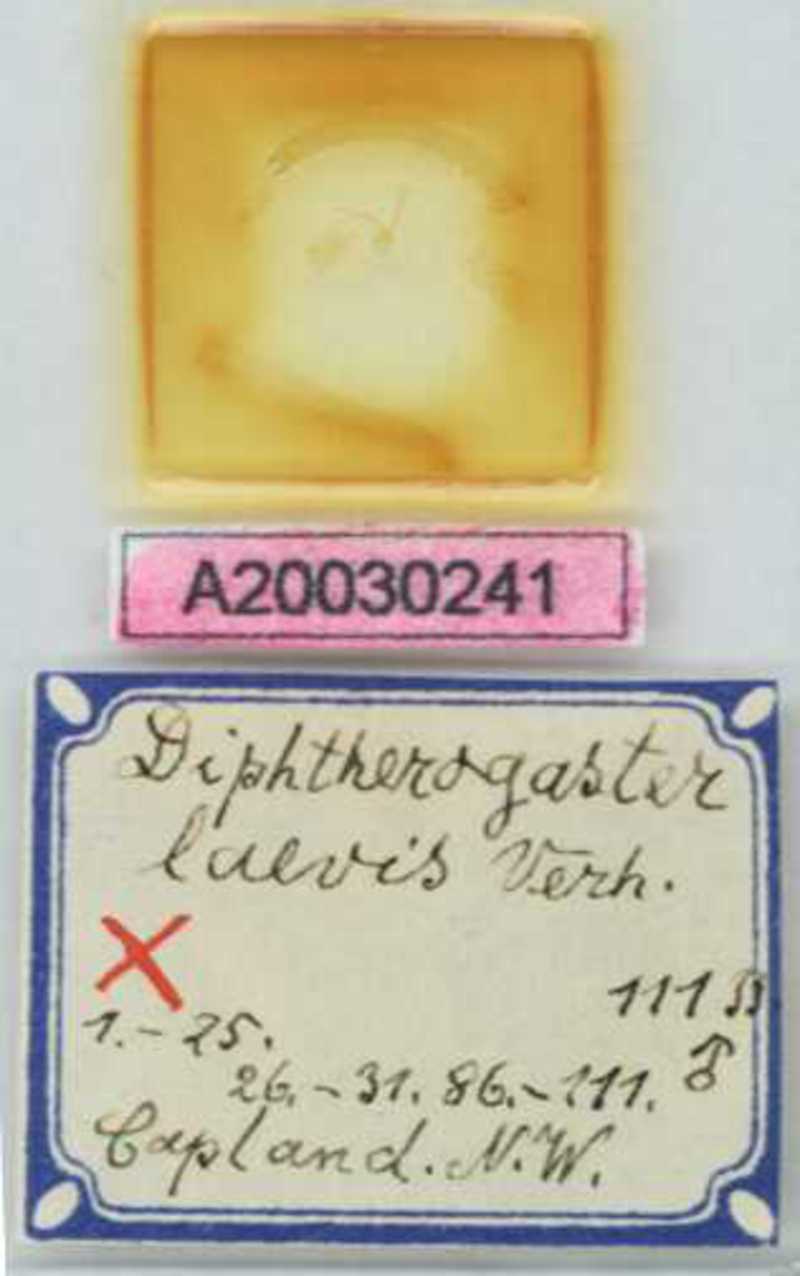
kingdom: Animalia
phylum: Arthropoda
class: Chilopoda
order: Geophilomorpha
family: Oryidae
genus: Diphtherogaster
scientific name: Diphtherogaster
